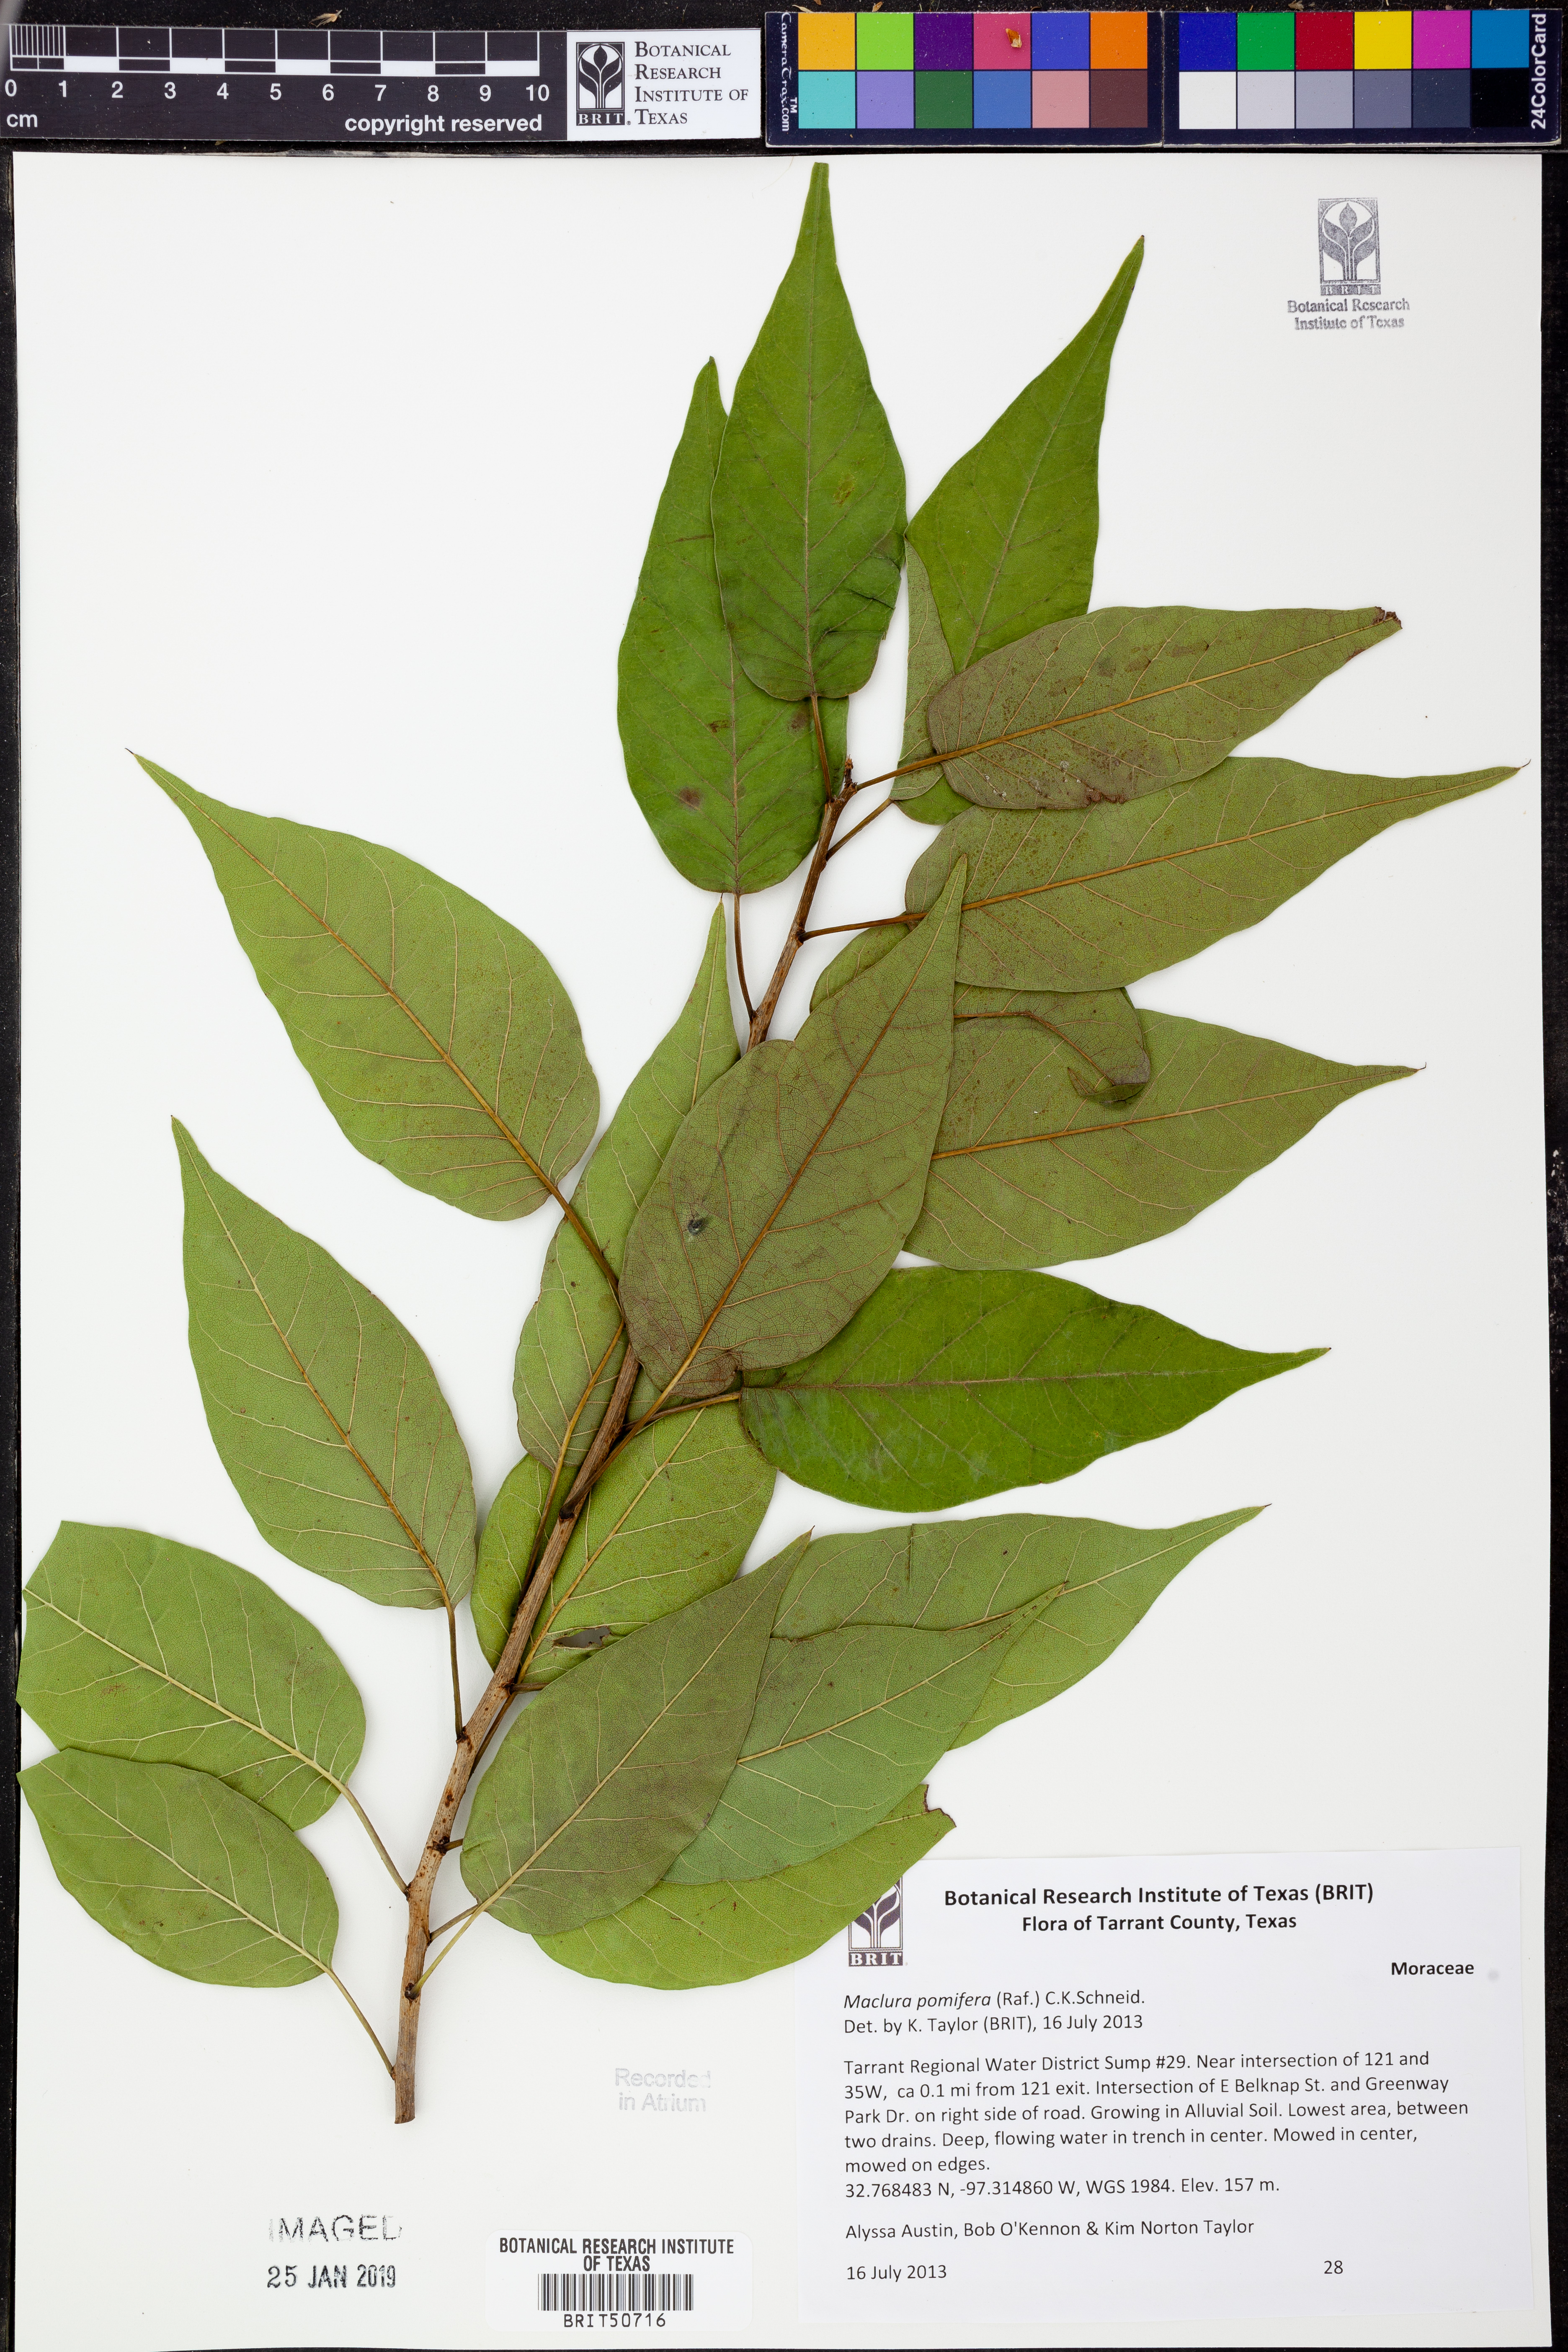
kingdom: Plantae
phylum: Tracheophyta
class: Magnoliopsida
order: Rosales
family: Moraceae
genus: Maclura
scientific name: Maclura pomifera
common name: Osage-orange
